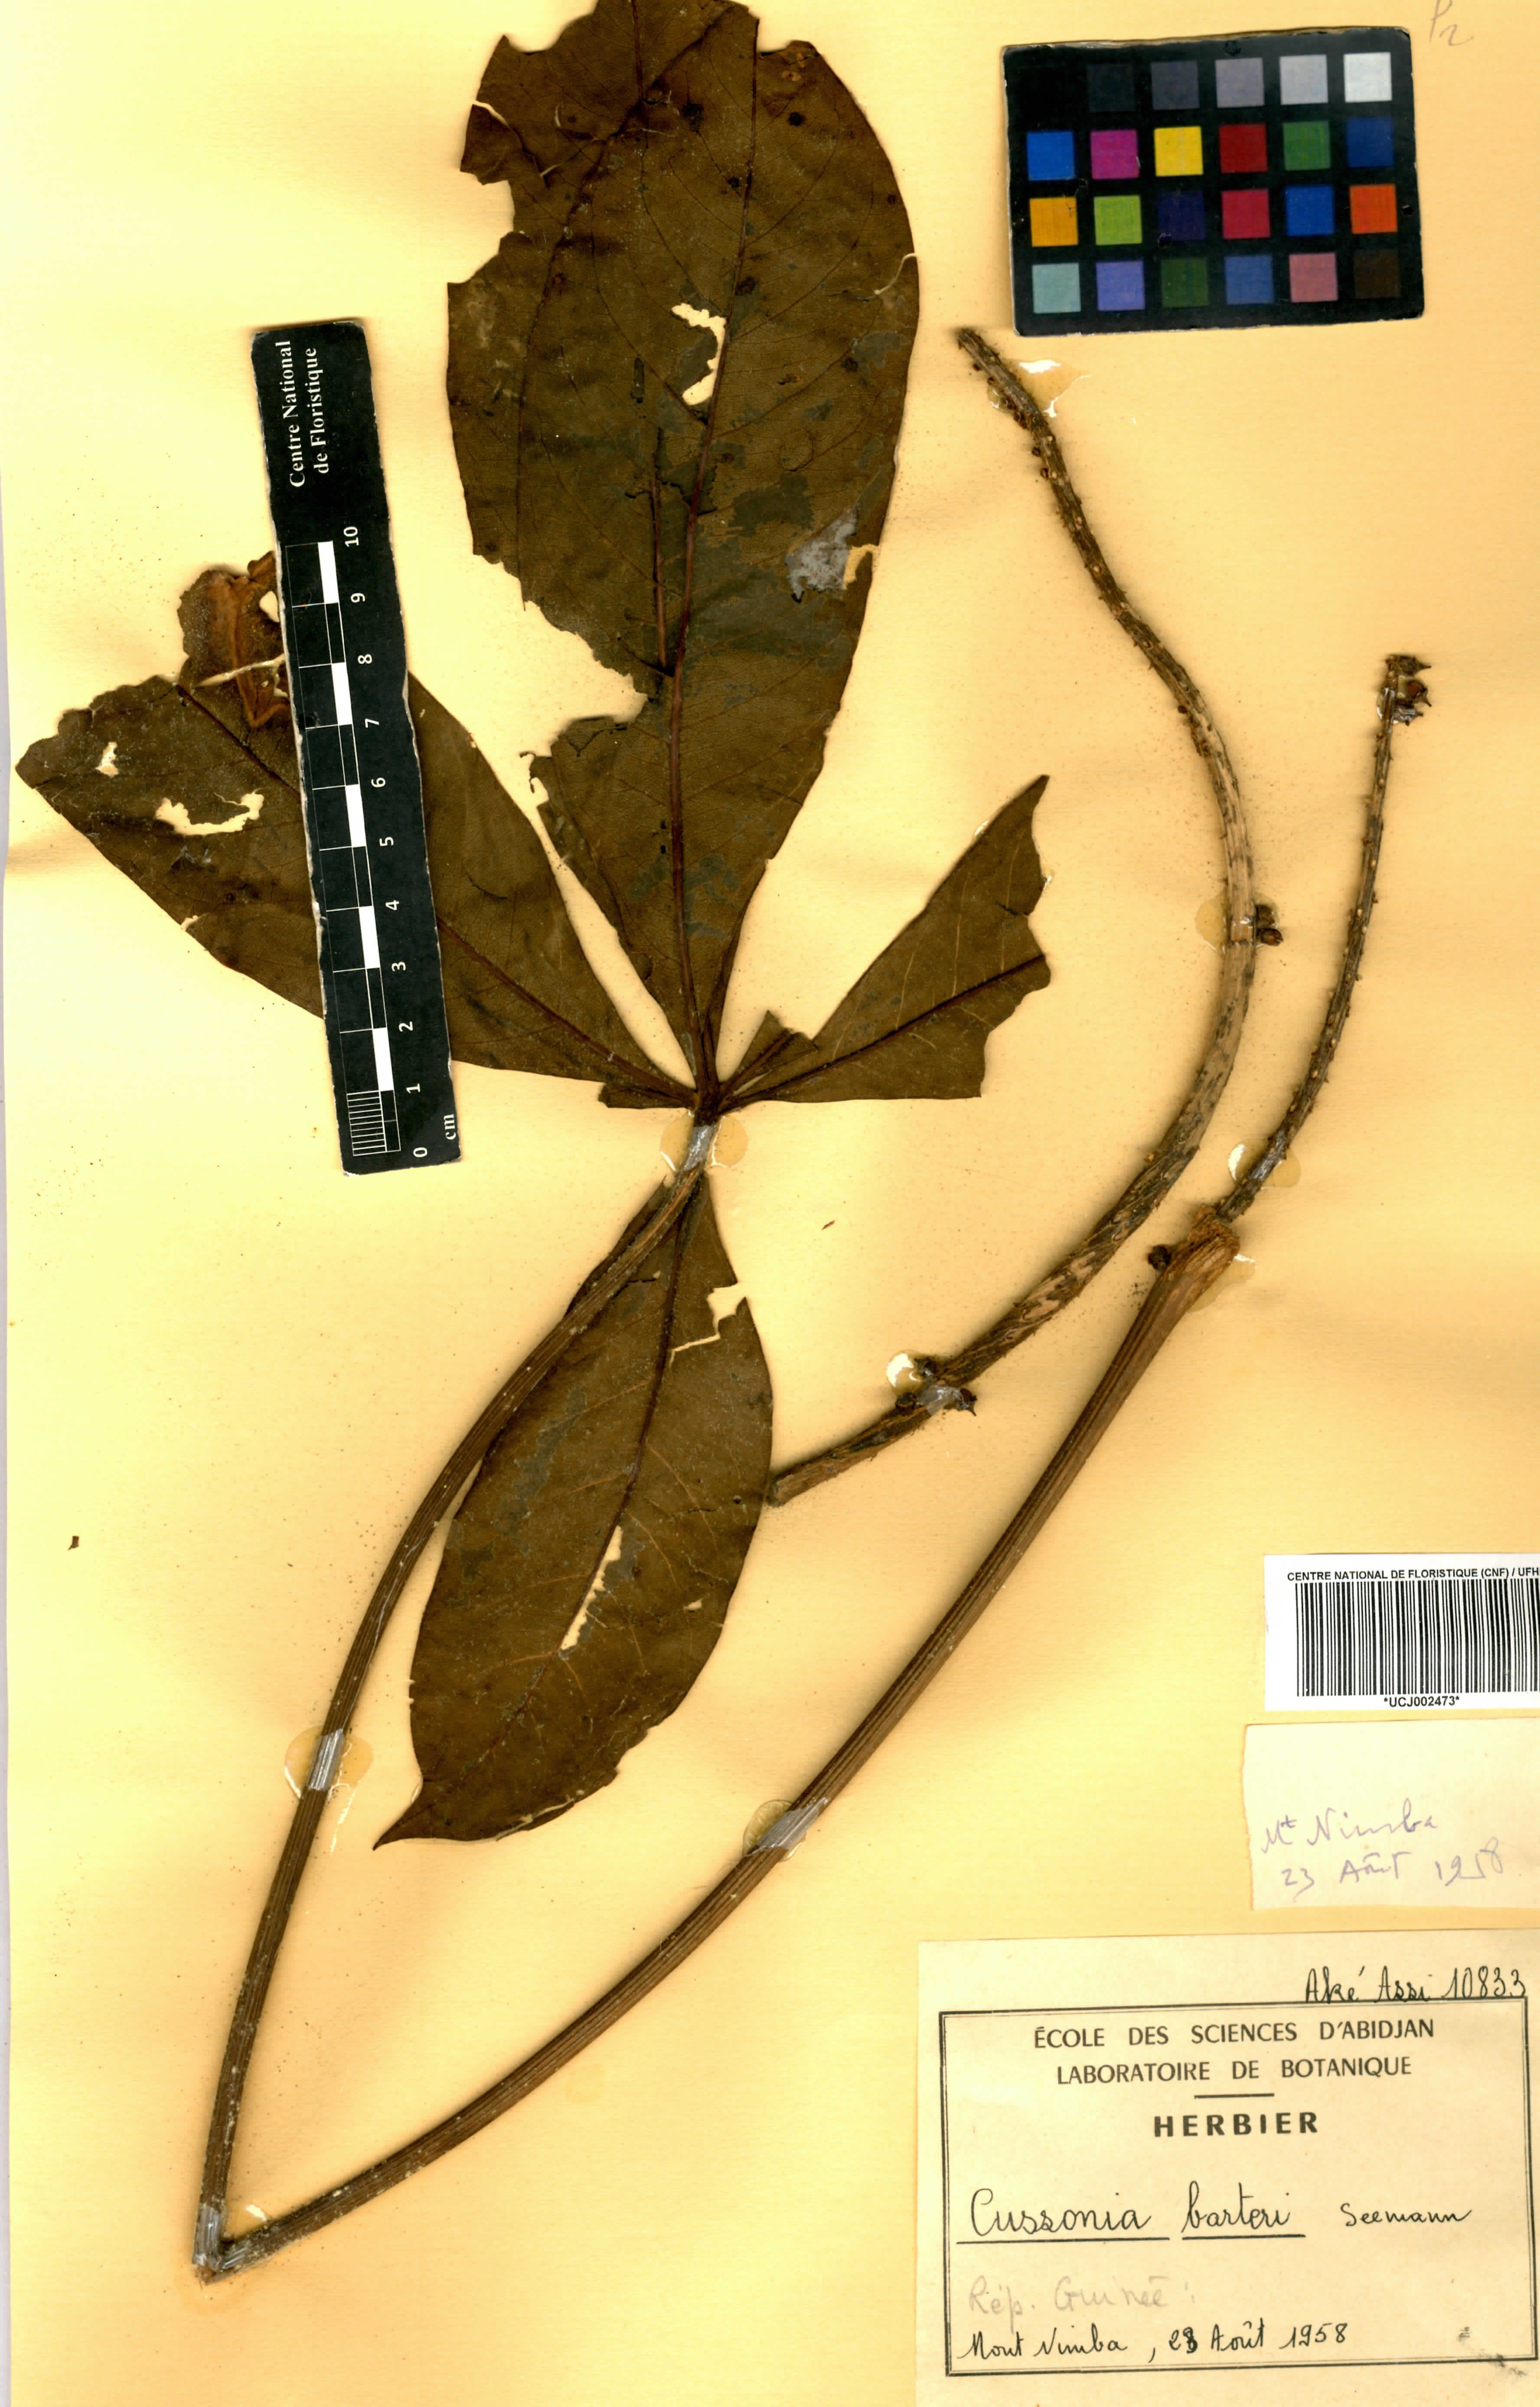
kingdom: Plantae
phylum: Tracheophyta
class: Magnoliopsida
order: Apiales
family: Araliaceae
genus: Cussonia
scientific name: Cussonia arborea
